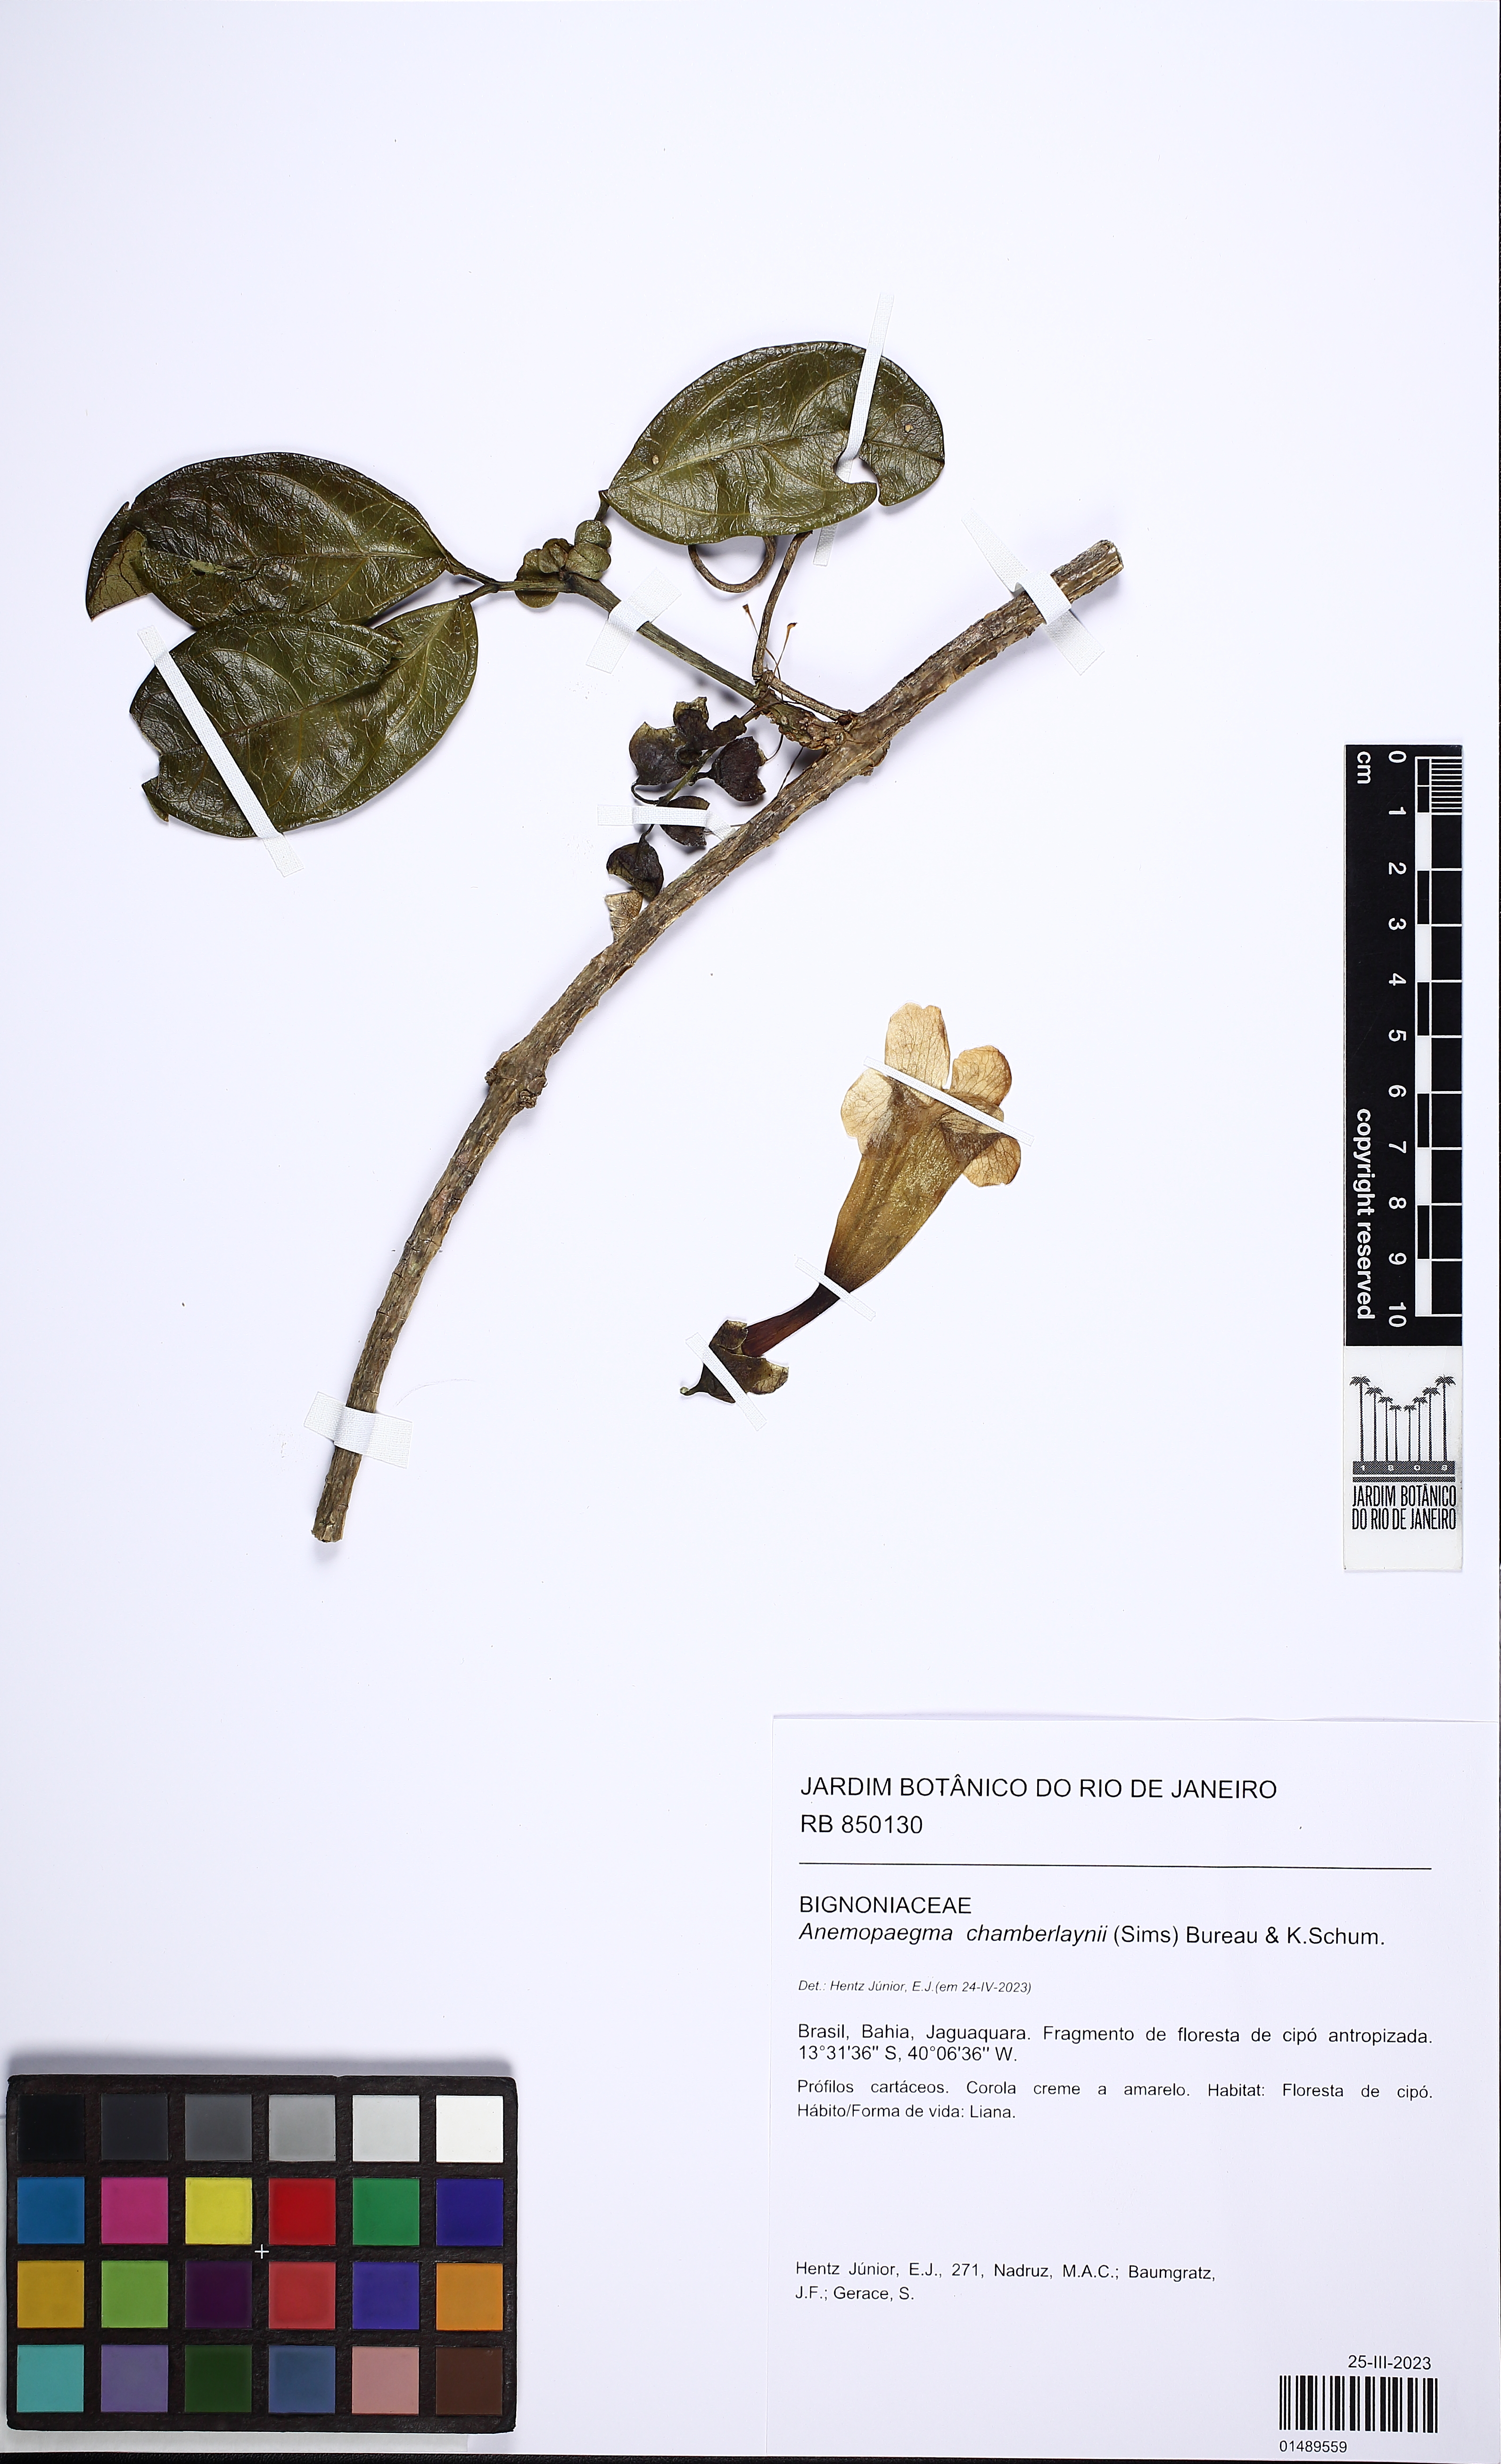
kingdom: Plantae
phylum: Tracheophyta
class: Magnoliopsida
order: Lamiales
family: Bignoniaceae
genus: Anemopaegma
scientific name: Anemopaegma chamberlaynii
